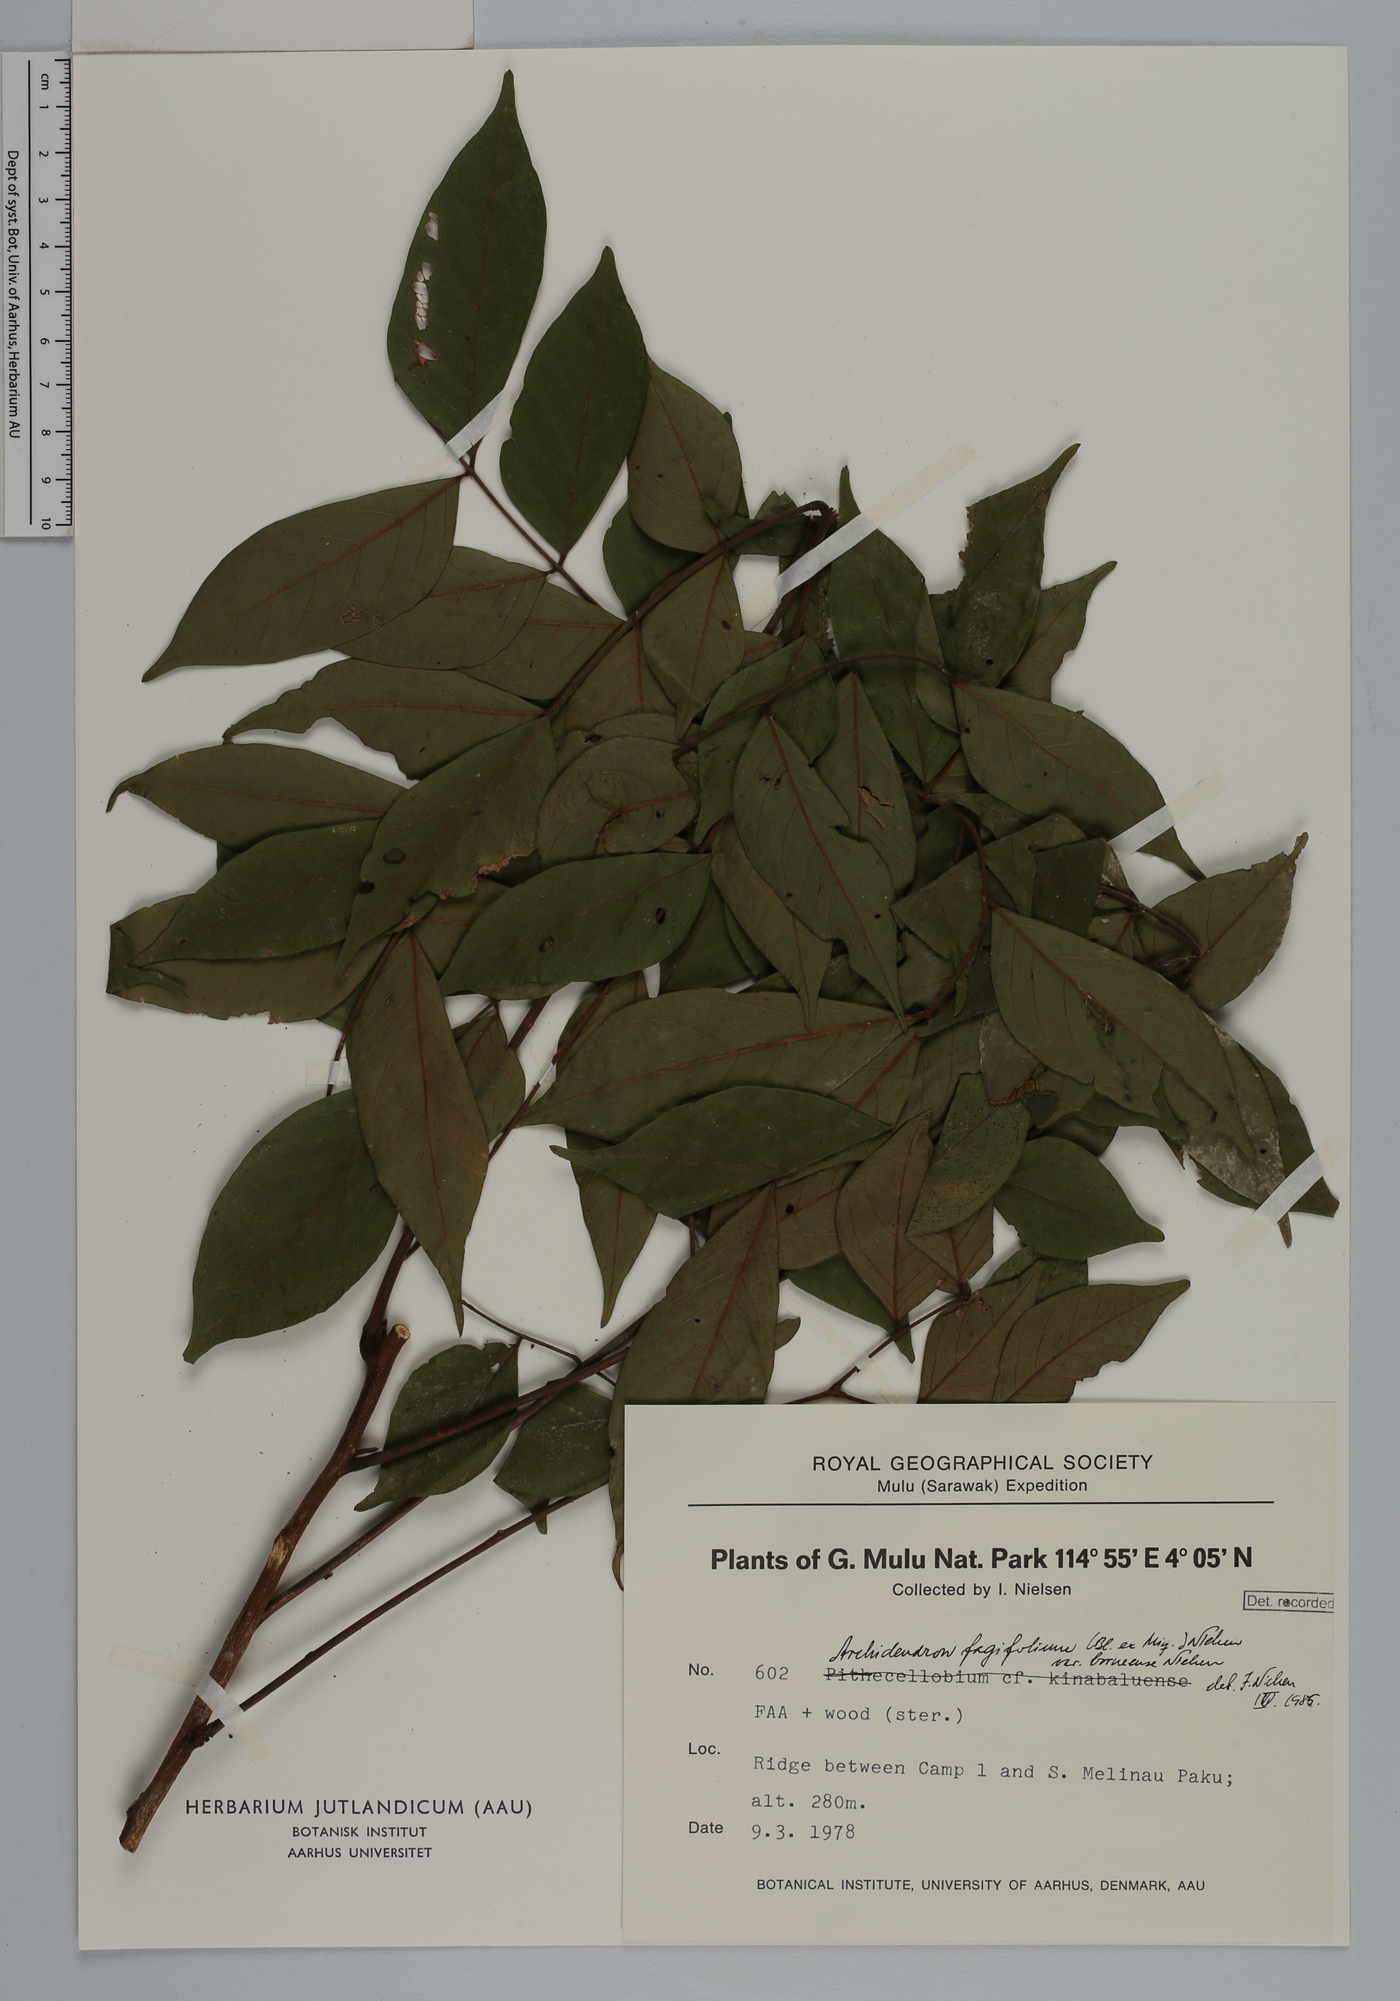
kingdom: Plantae
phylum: Tracheophyta
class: Magnoliopsida
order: Fabales
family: Fabaceae
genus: Archidendron
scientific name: Archidendron fagifolium
